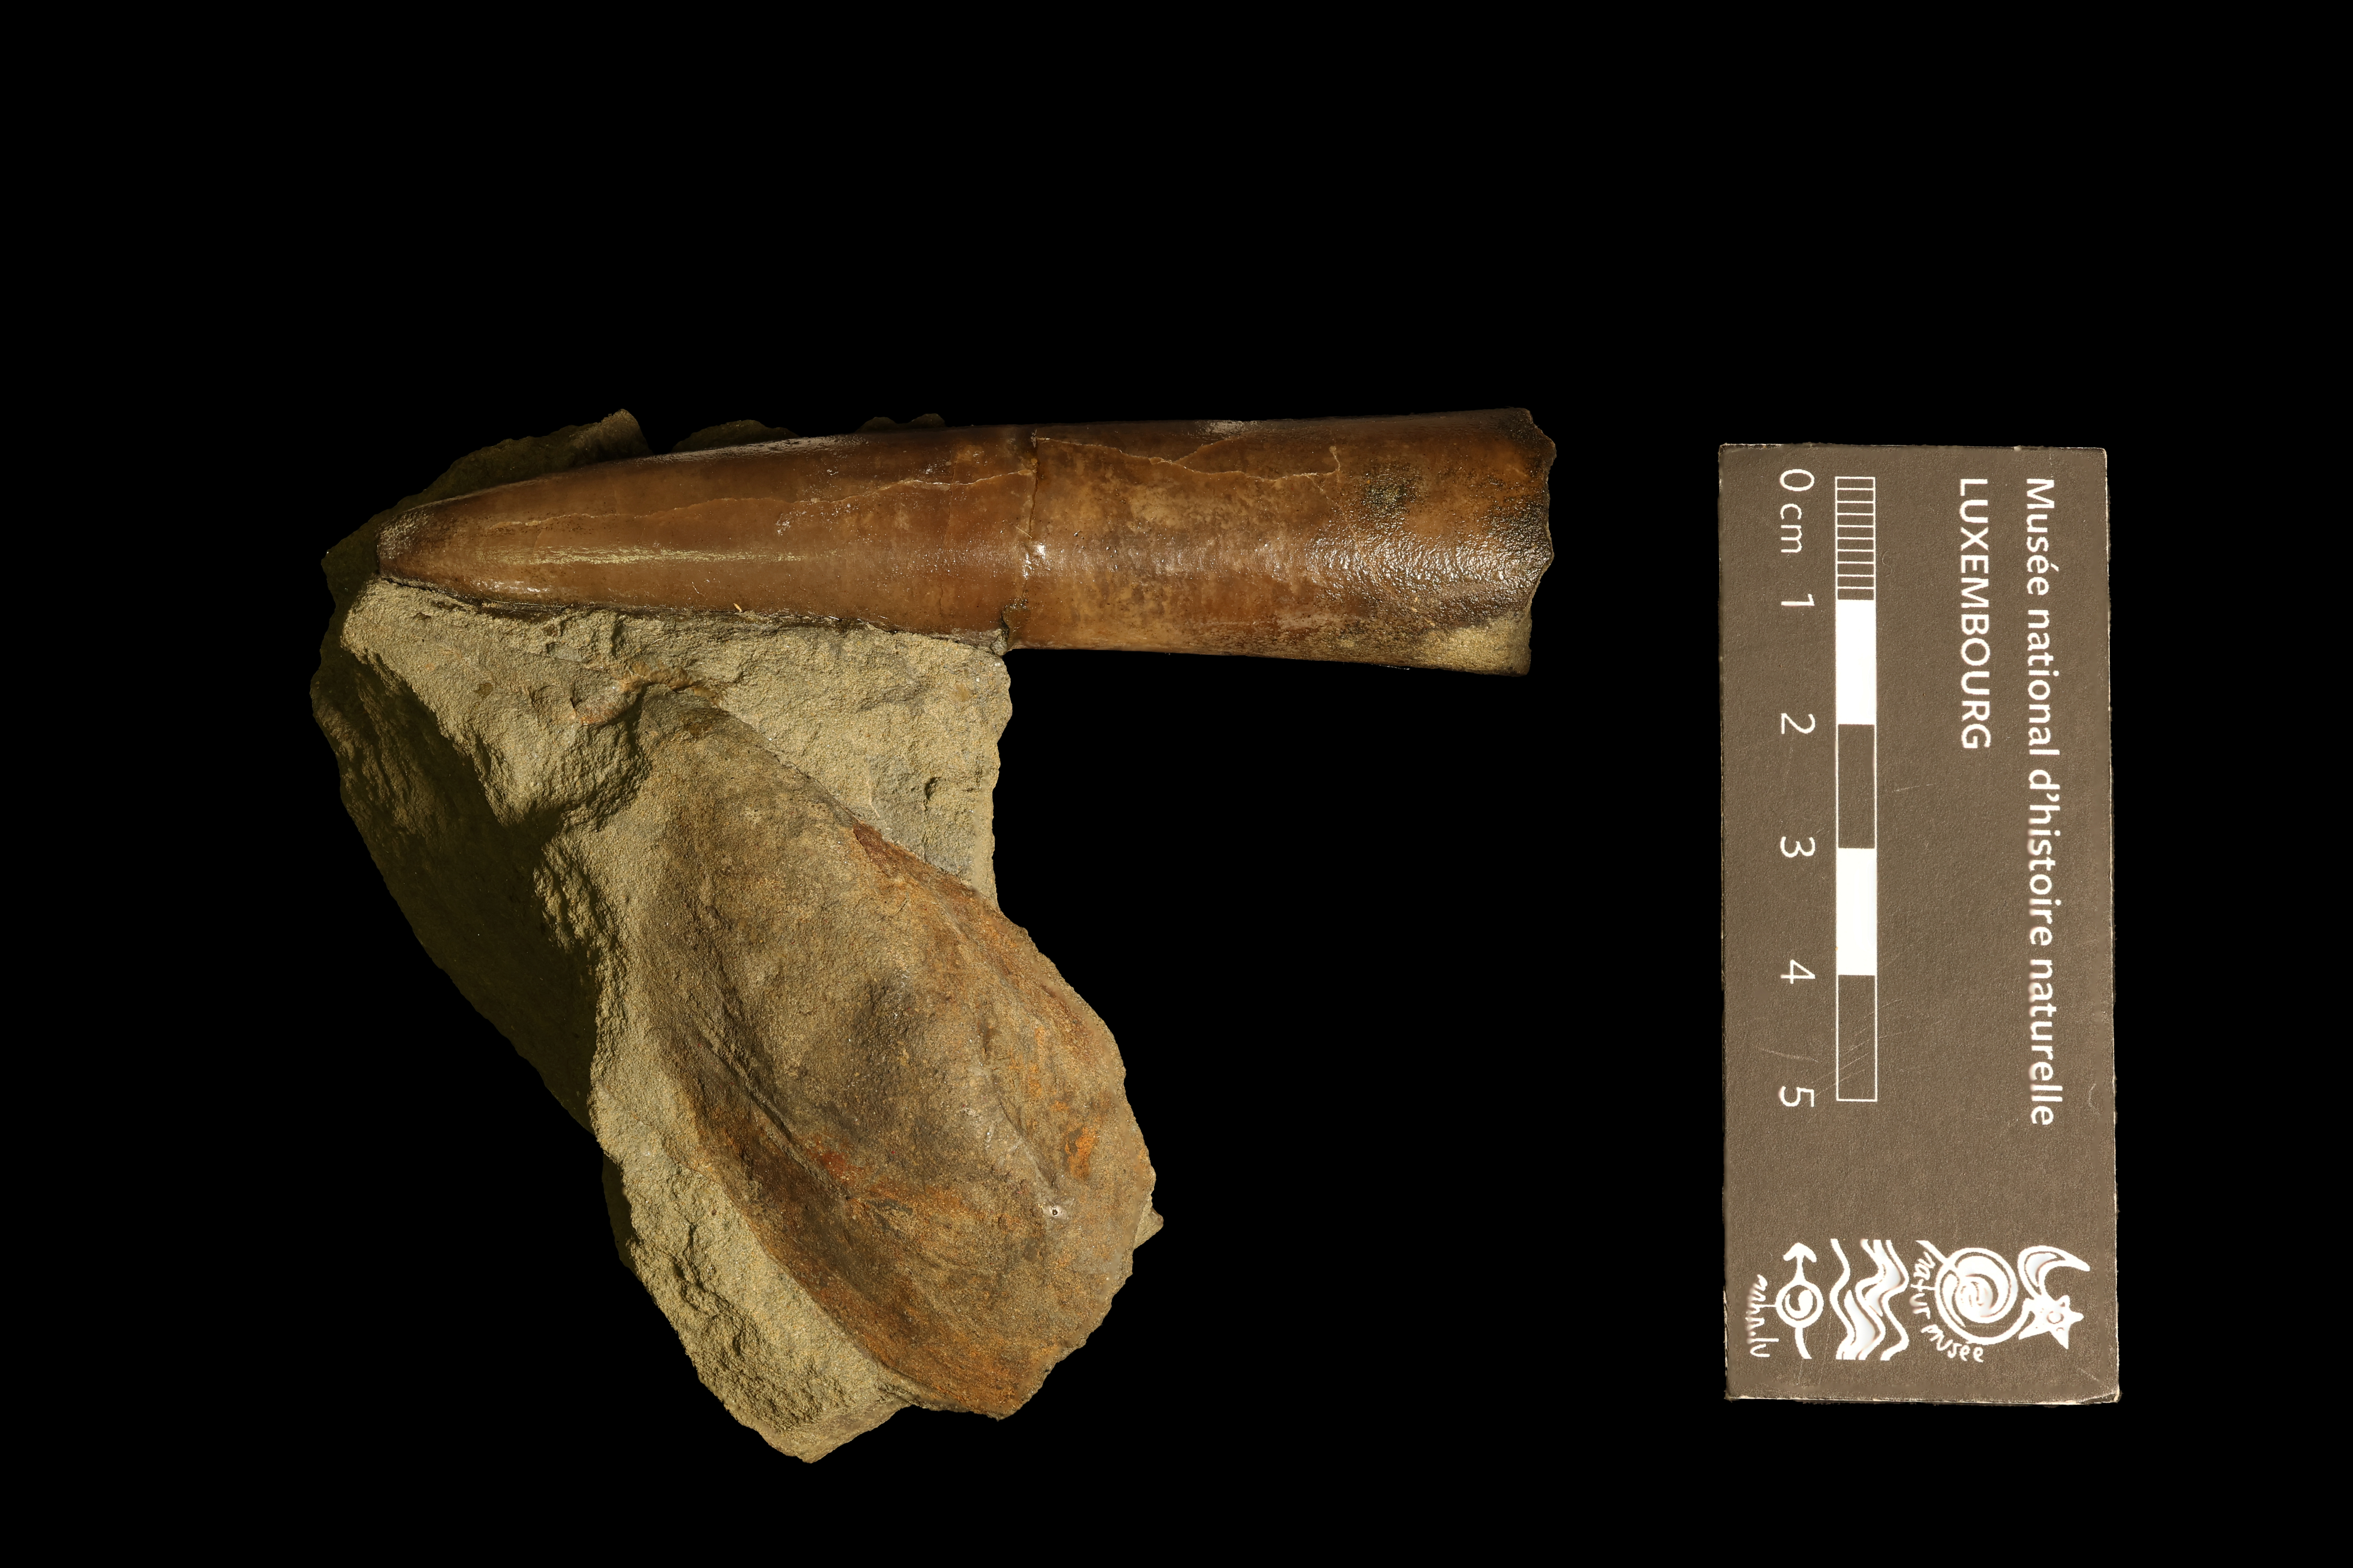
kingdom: Animalia
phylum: Mollusca
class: Cephalopoda
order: Belemnitida
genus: Mesoteuthis
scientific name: Mesoteuthis
